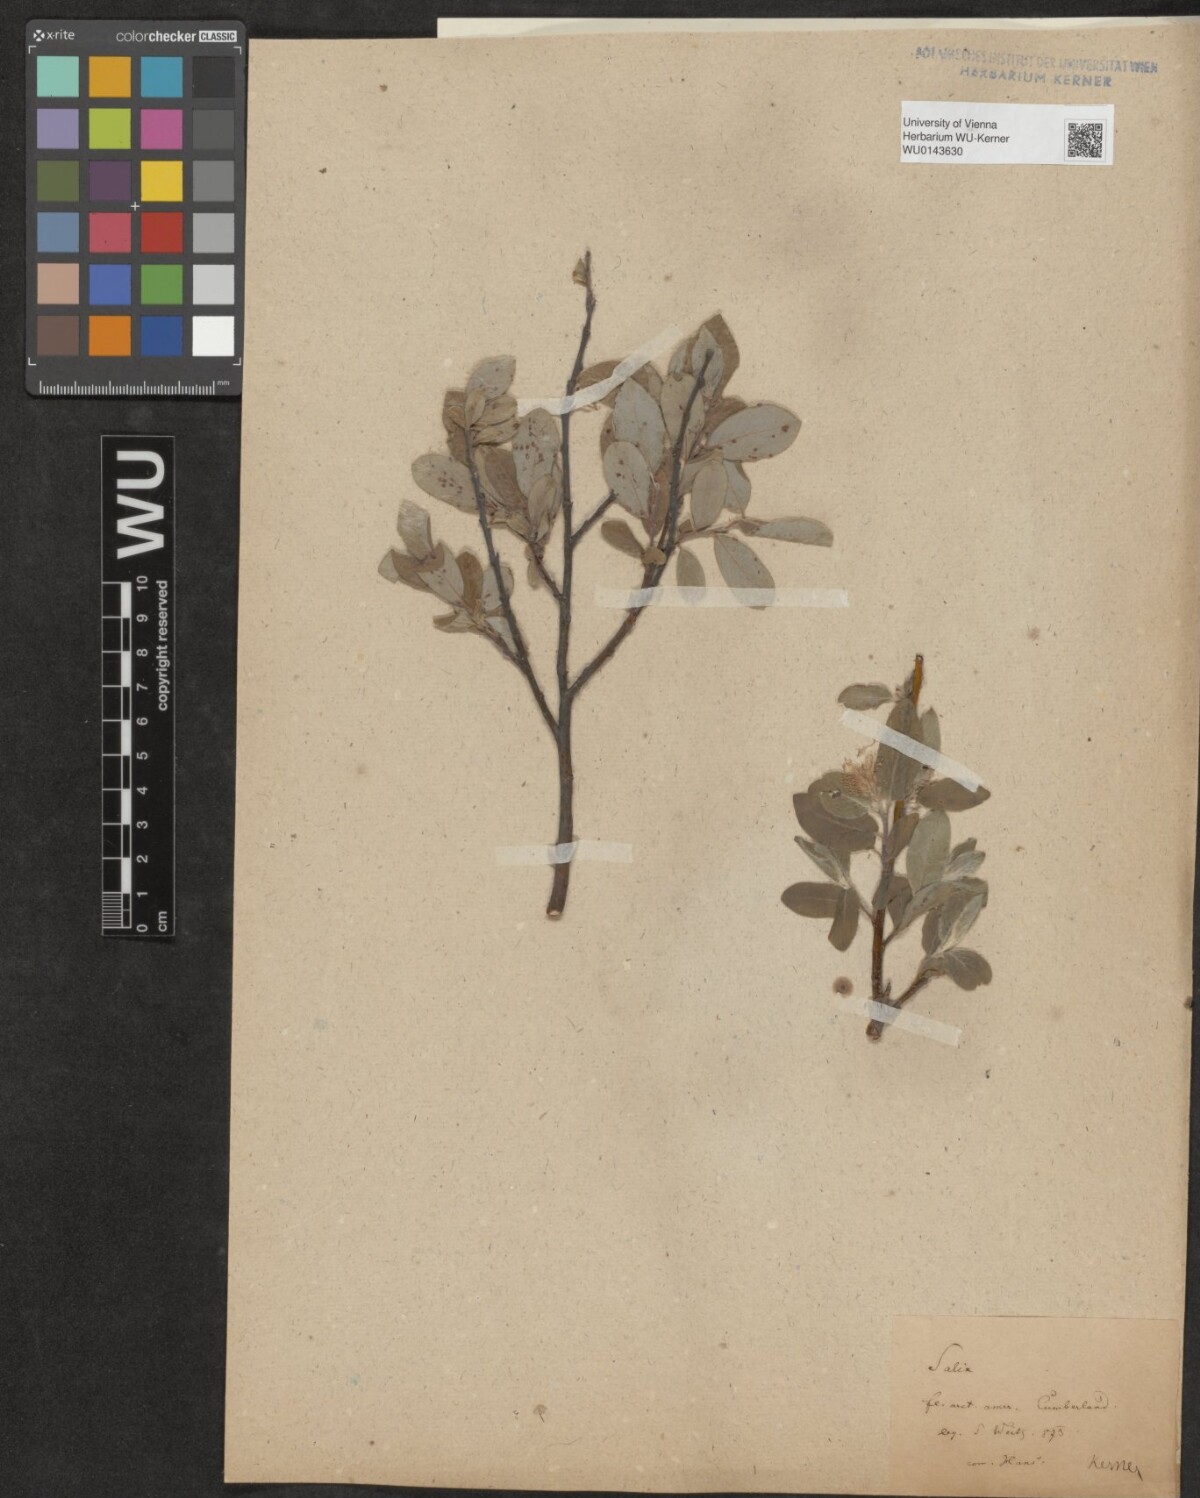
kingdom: Plantae
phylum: Tracheophyta
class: Magnoliopsida
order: Malpighiales
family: Salicaceae
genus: Salix
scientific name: Salix
